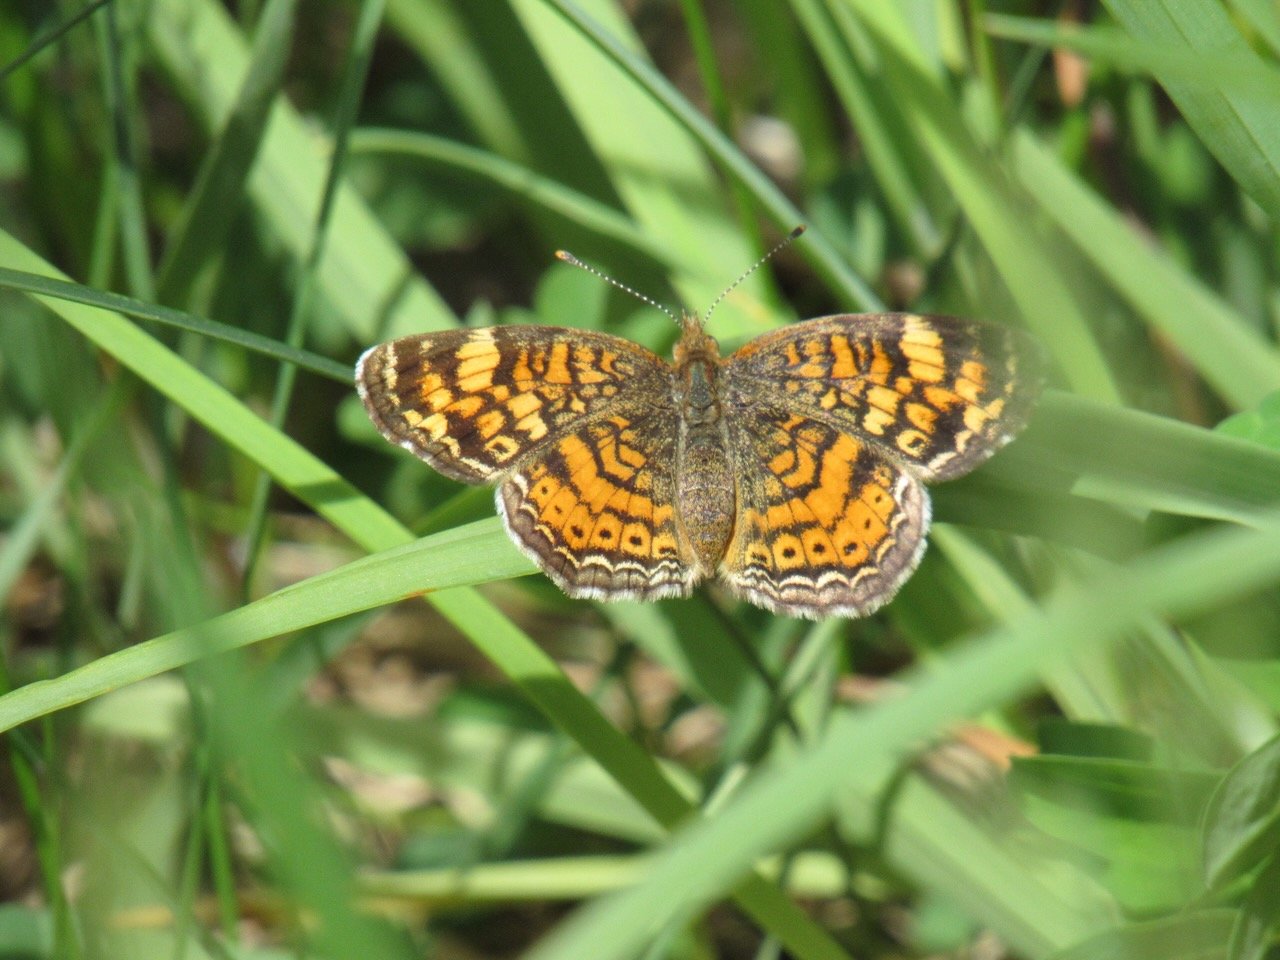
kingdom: Animalia
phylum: Arthropoda
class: Insecta
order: Lepidoptera
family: Nymphalidae
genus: Phyciodes
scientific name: Phyciodes tharos
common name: Pearl Crescent
